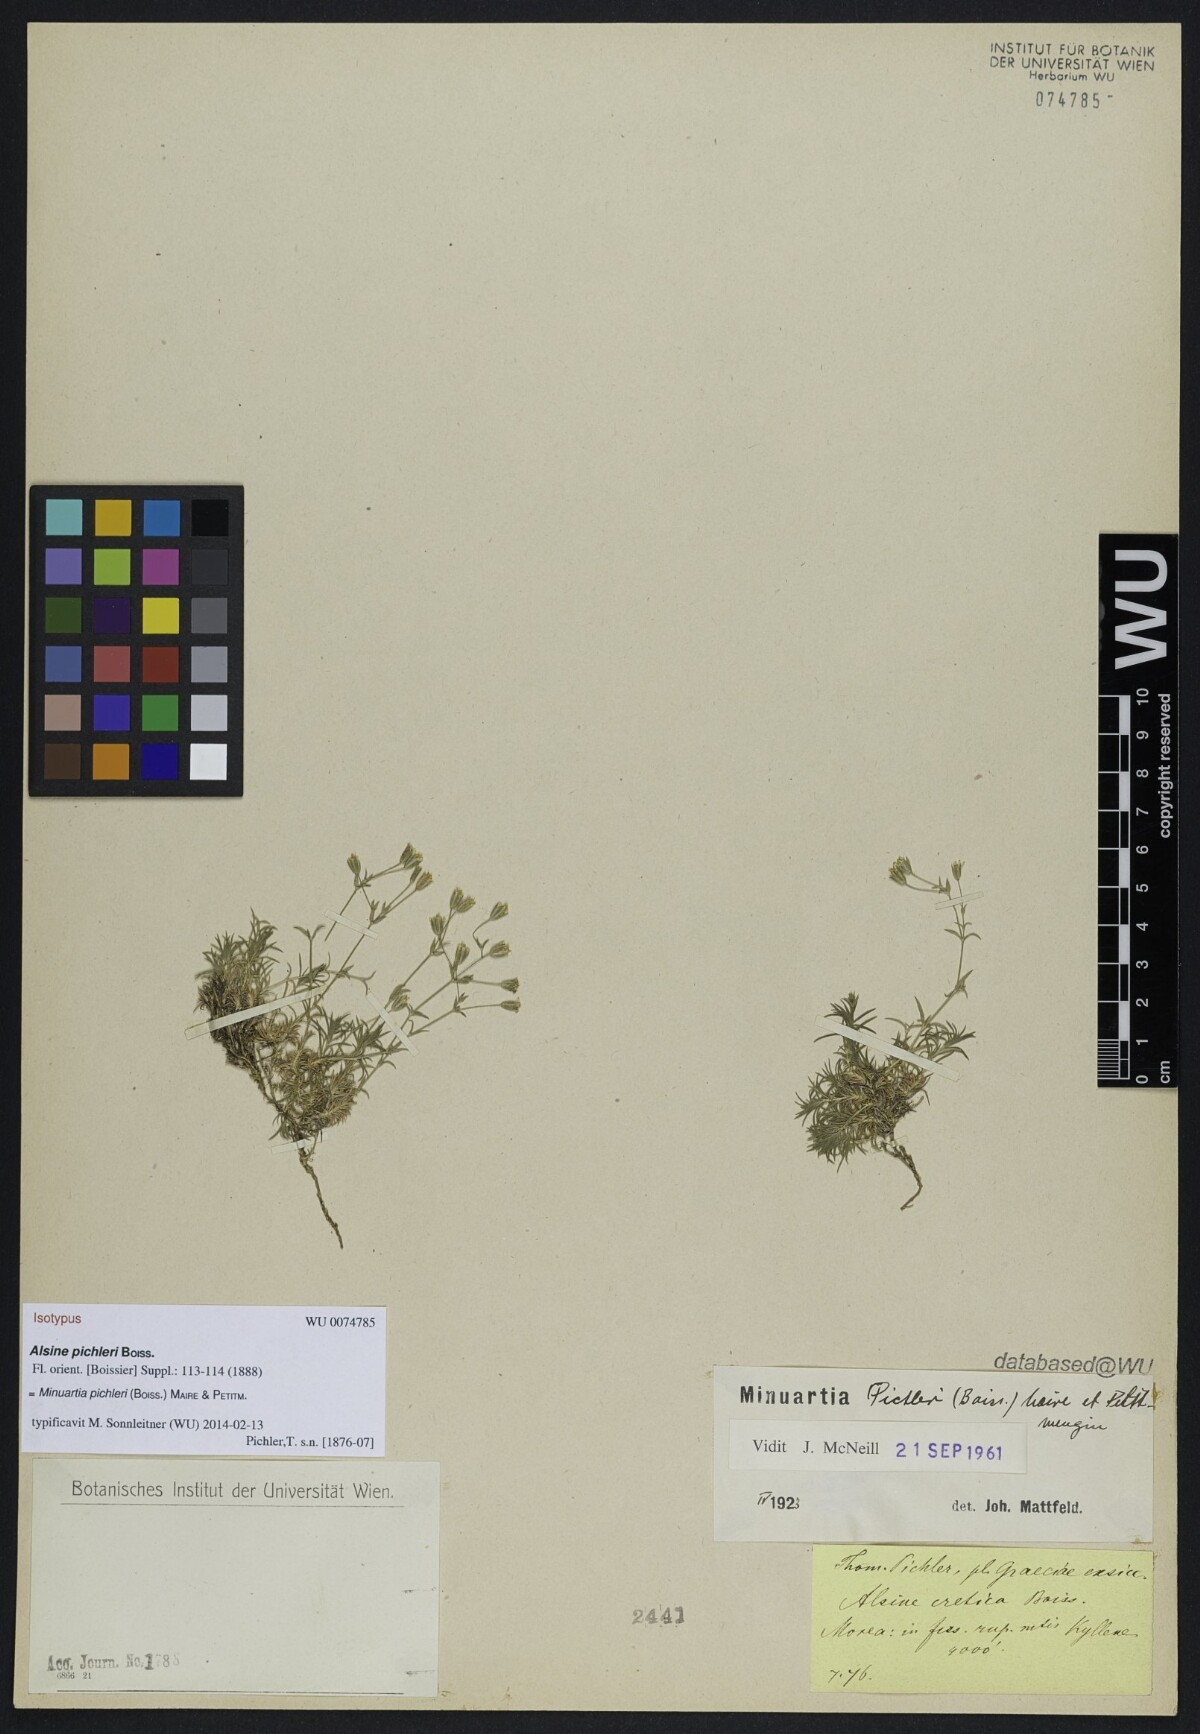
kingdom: Plantae
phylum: Tracheophyta
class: Magnoliopsida
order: Caryophyllales
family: Caryophyllaceae
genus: Sabulina
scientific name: Sabulina pichleri
